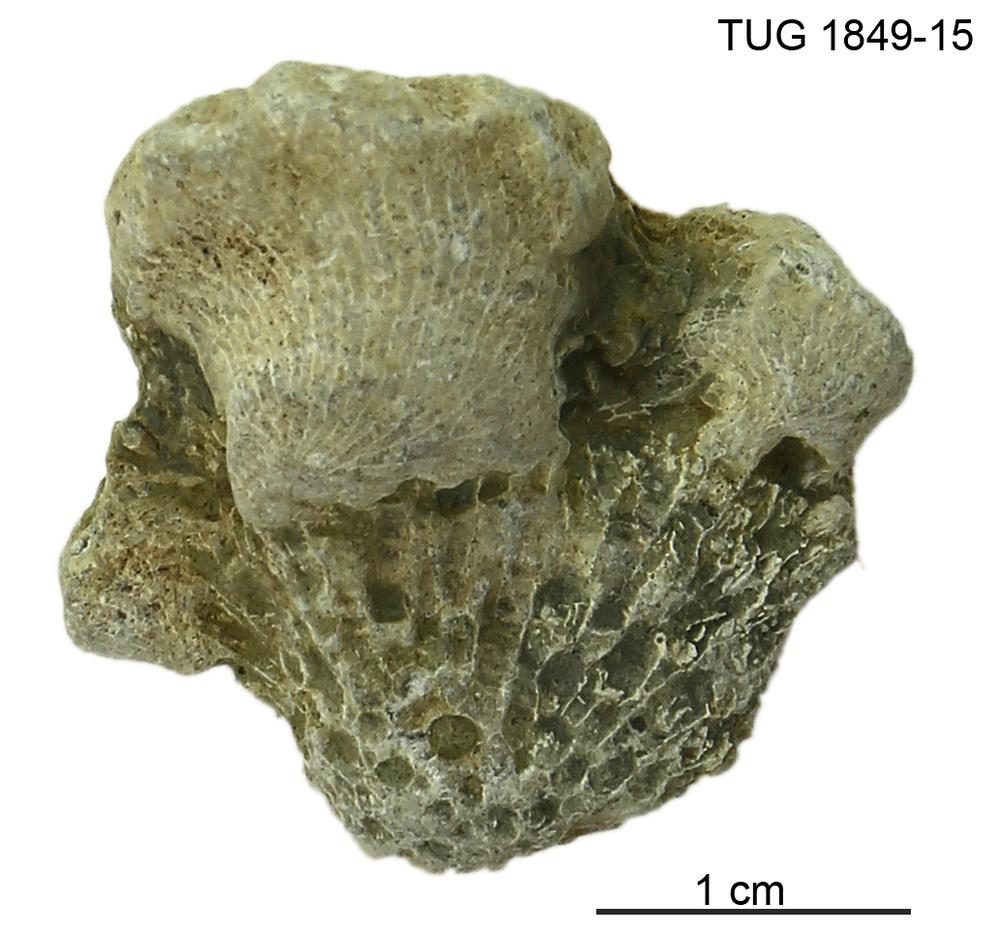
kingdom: Animalia
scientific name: Animalia
